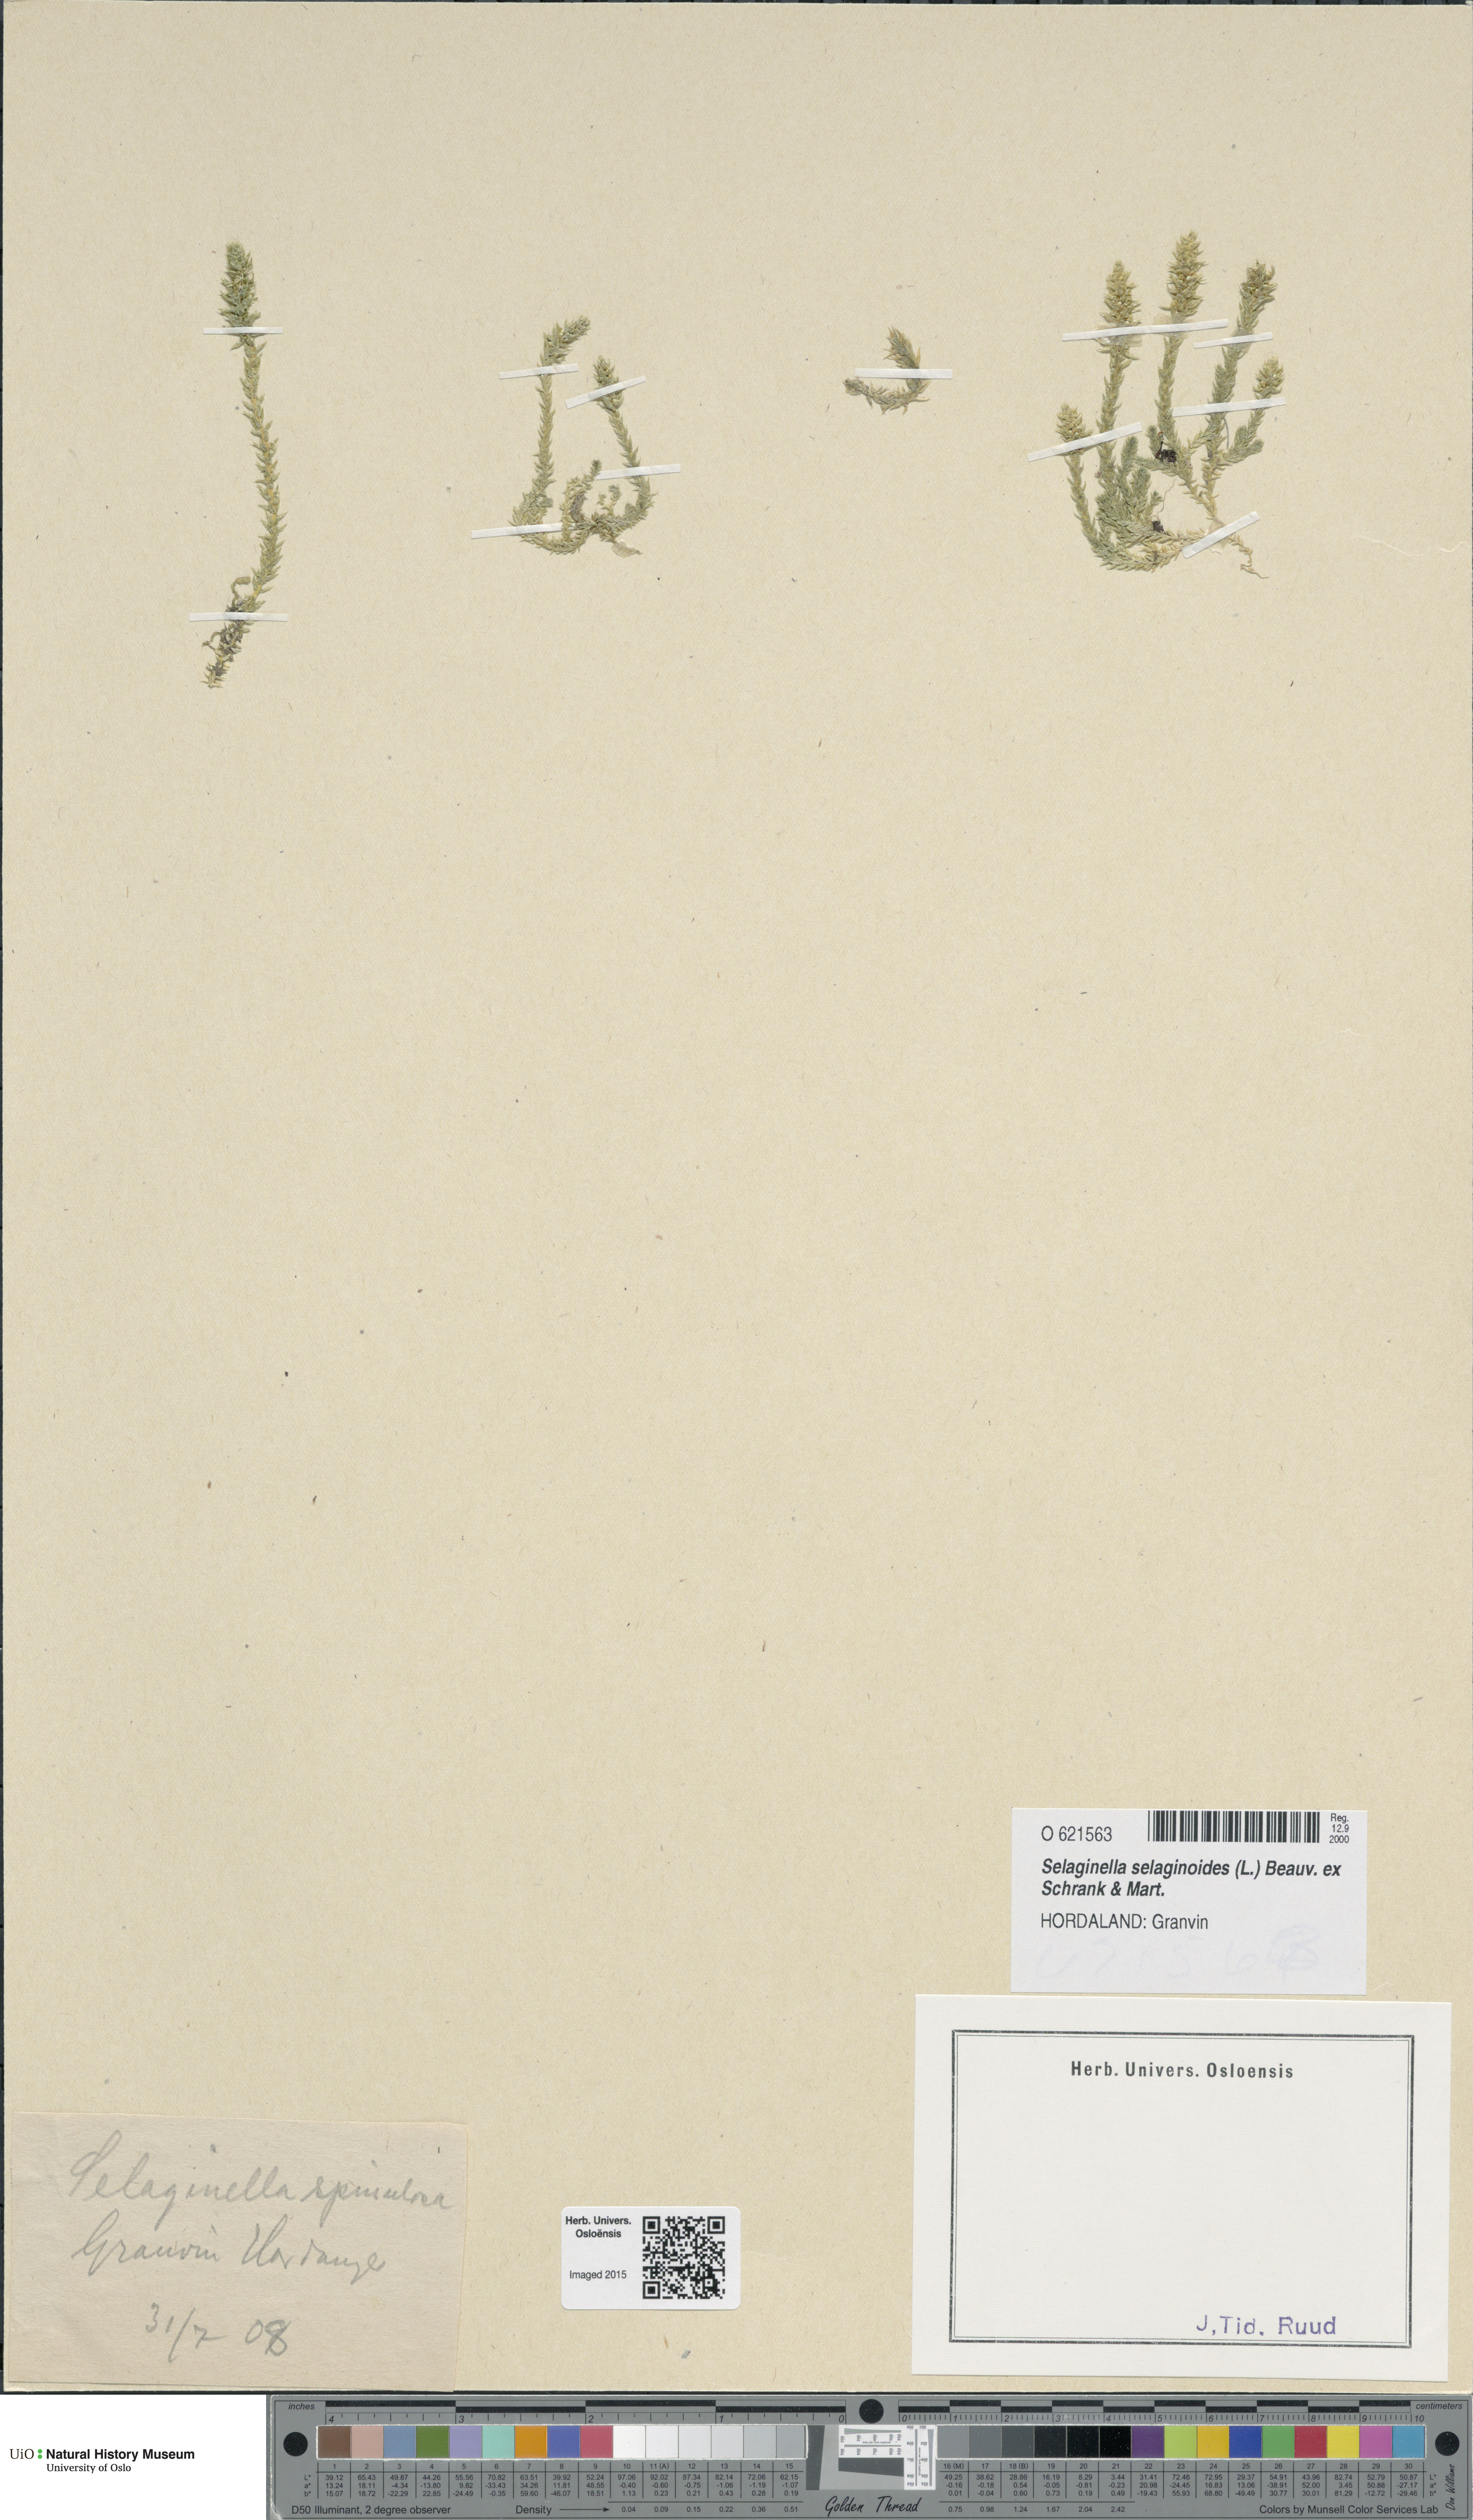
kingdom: Plantae
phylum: Tracheophyta
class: Lycopodiopsida
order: Selaginellales
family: Selaginellaceae
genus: Selaginella
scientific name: Selaginella selaginoides
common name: Prickly mountain-moss
